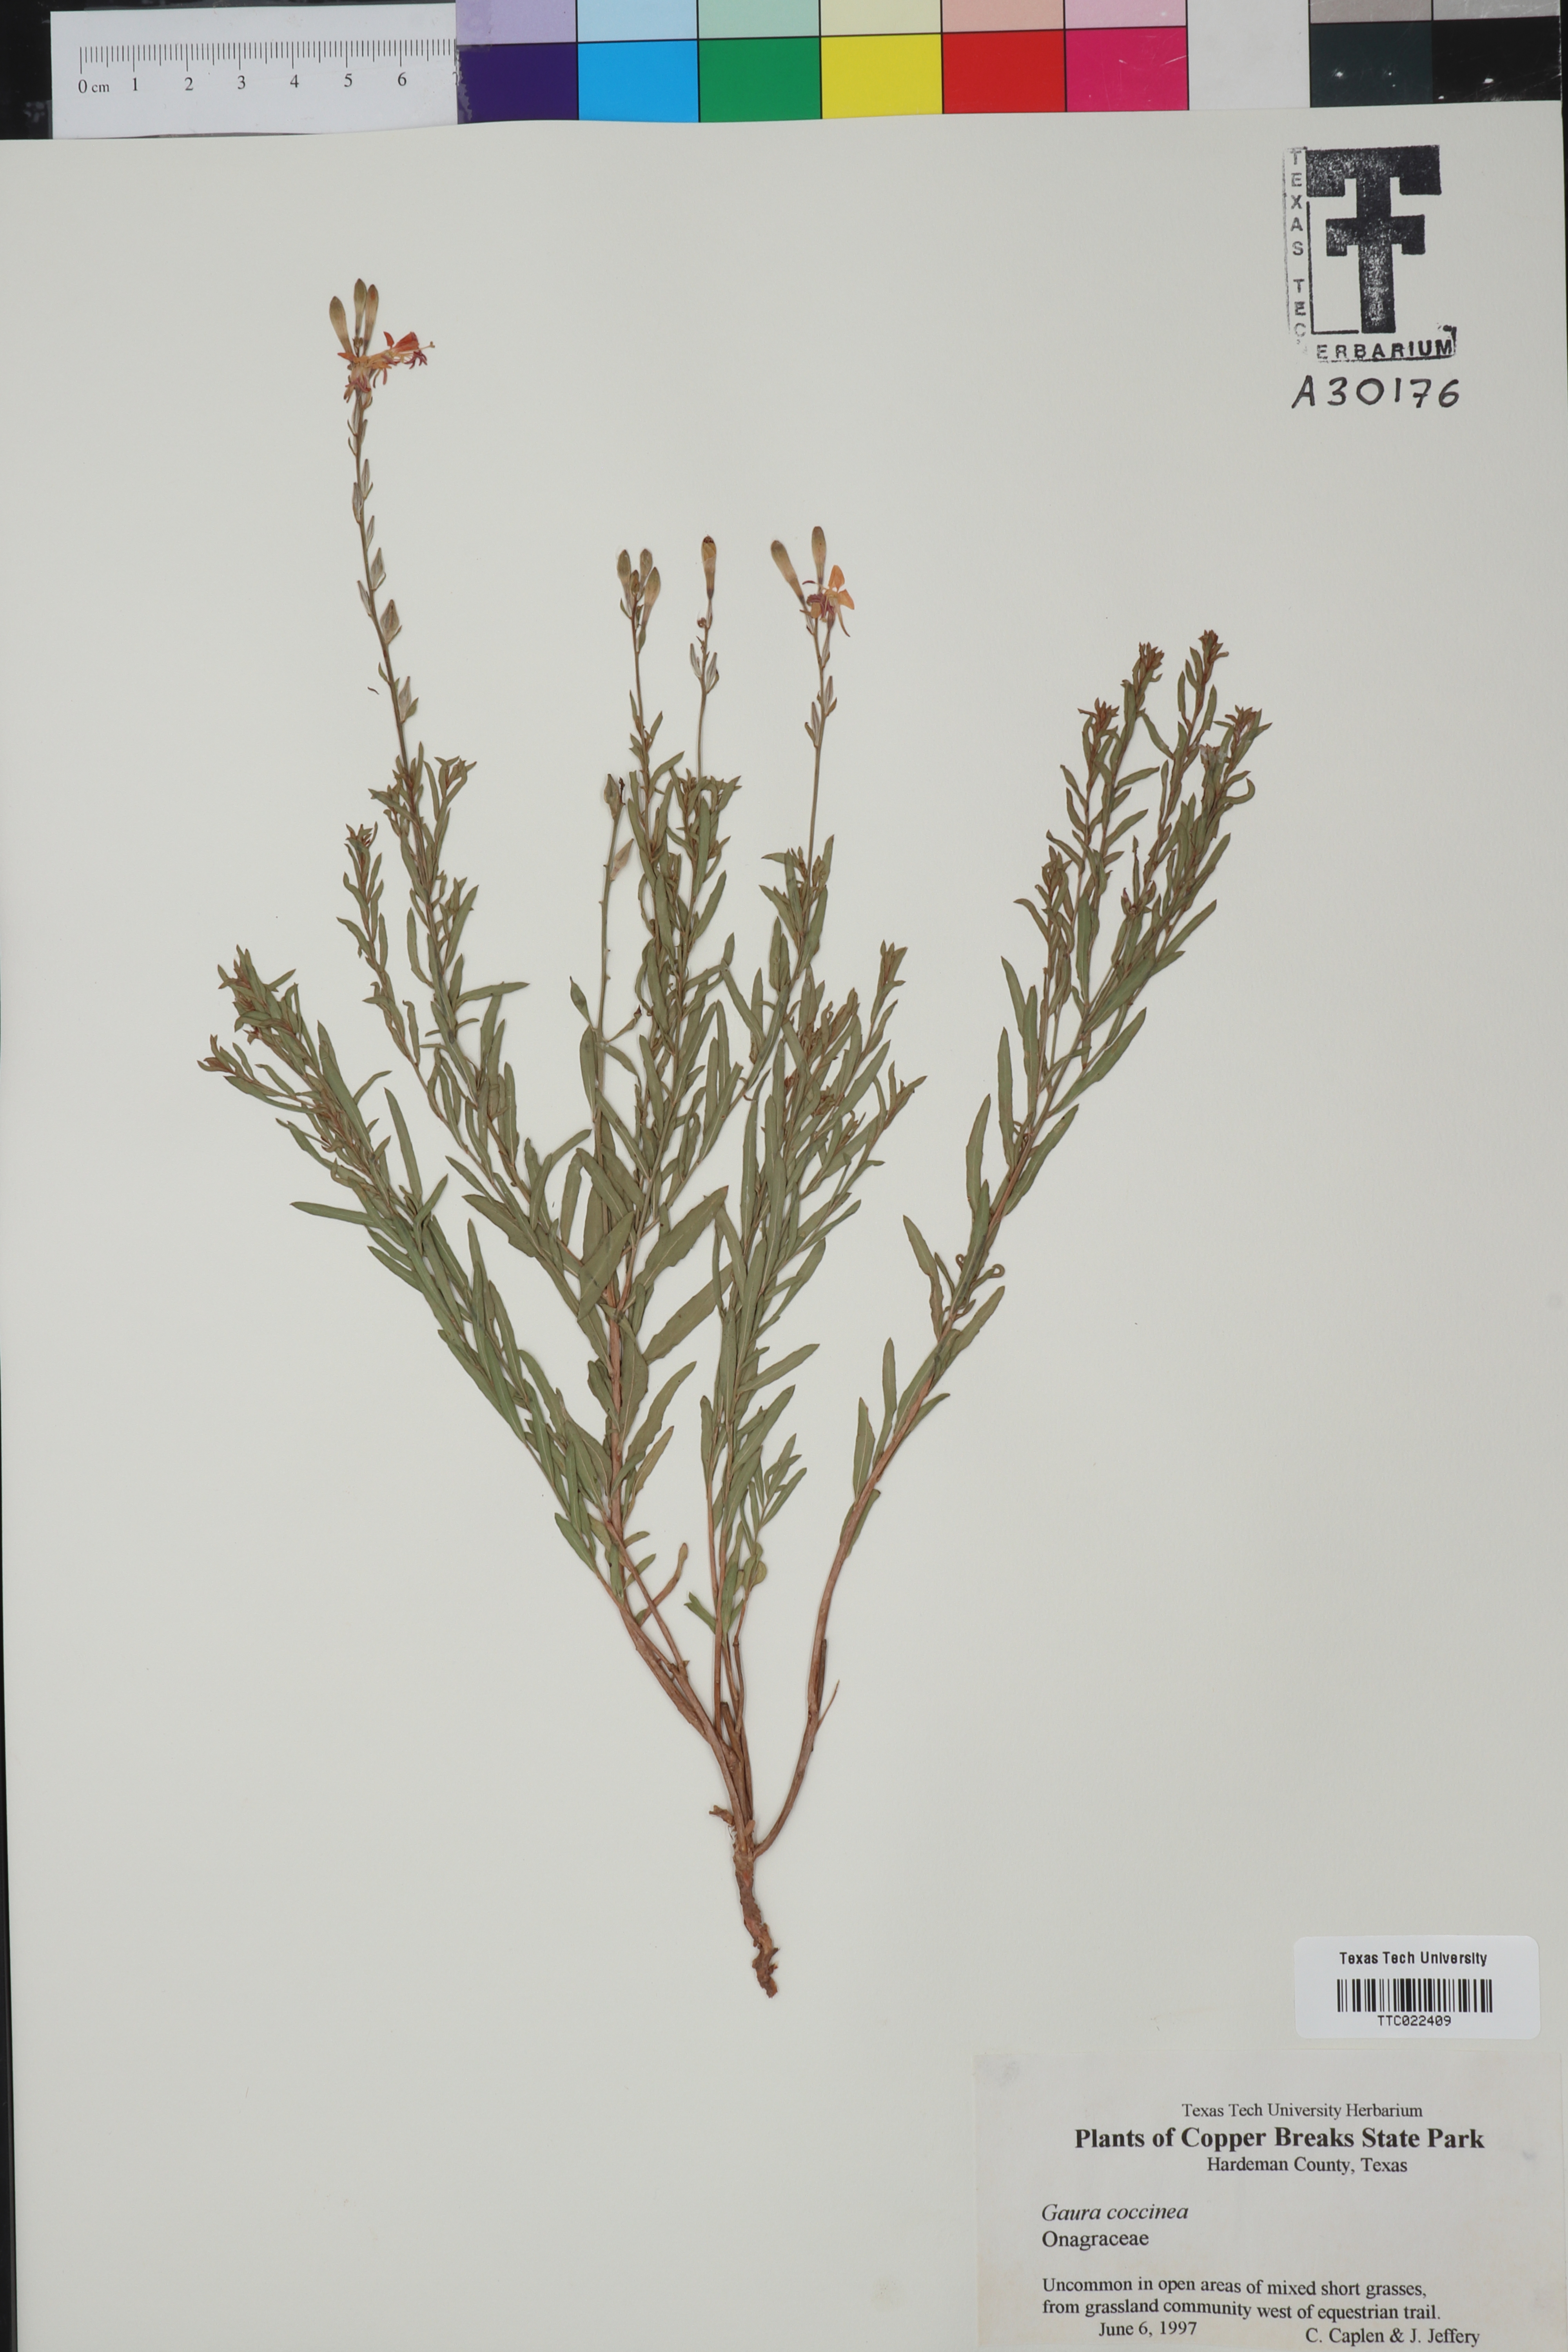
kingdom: Plantae
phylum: Tracheophyta
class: Magnoliopsida
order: Myrtales
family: Onagraceae
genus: Oenothera
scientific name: Oenothera suffrutescens
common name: Scarlet beeblossom
